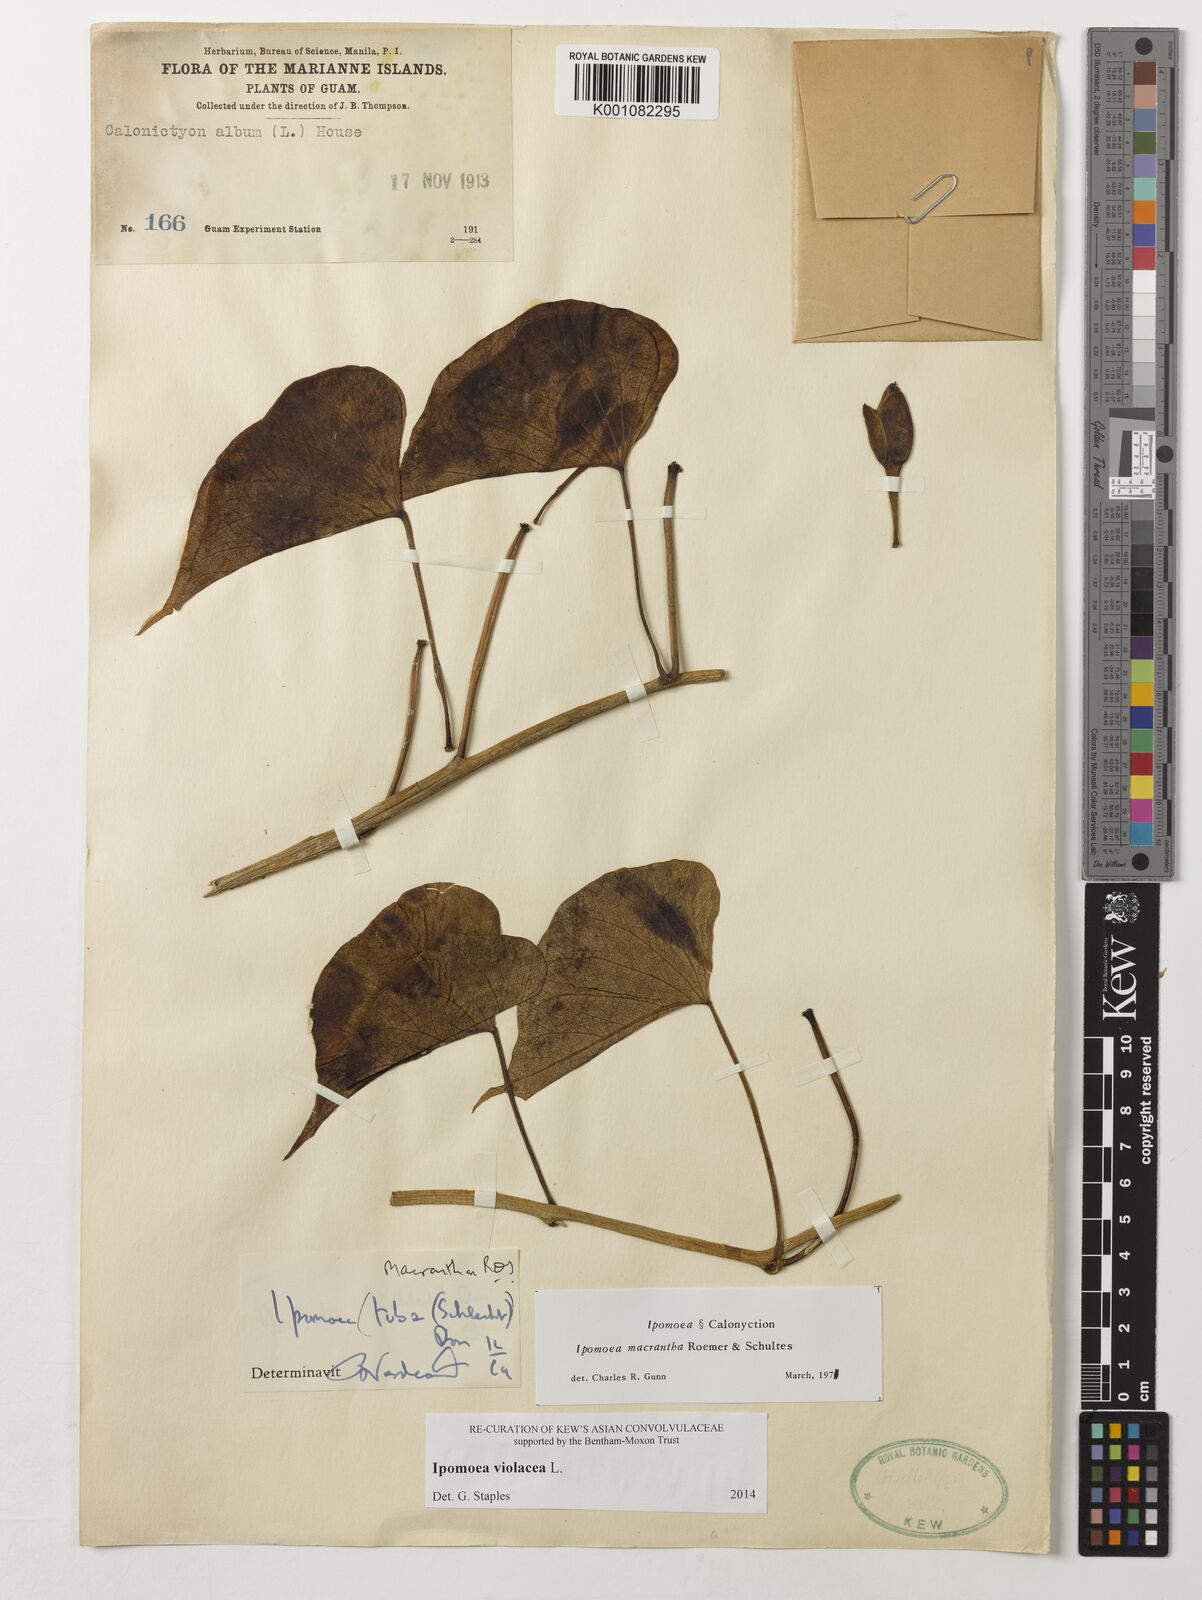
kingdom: Plantae
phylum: Tracheophyta
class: Magnoliopsida
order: Solanales
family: Convolvulaceae
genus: Ipomoea
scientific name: Ipomoea violacea
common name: Beach moonflower
